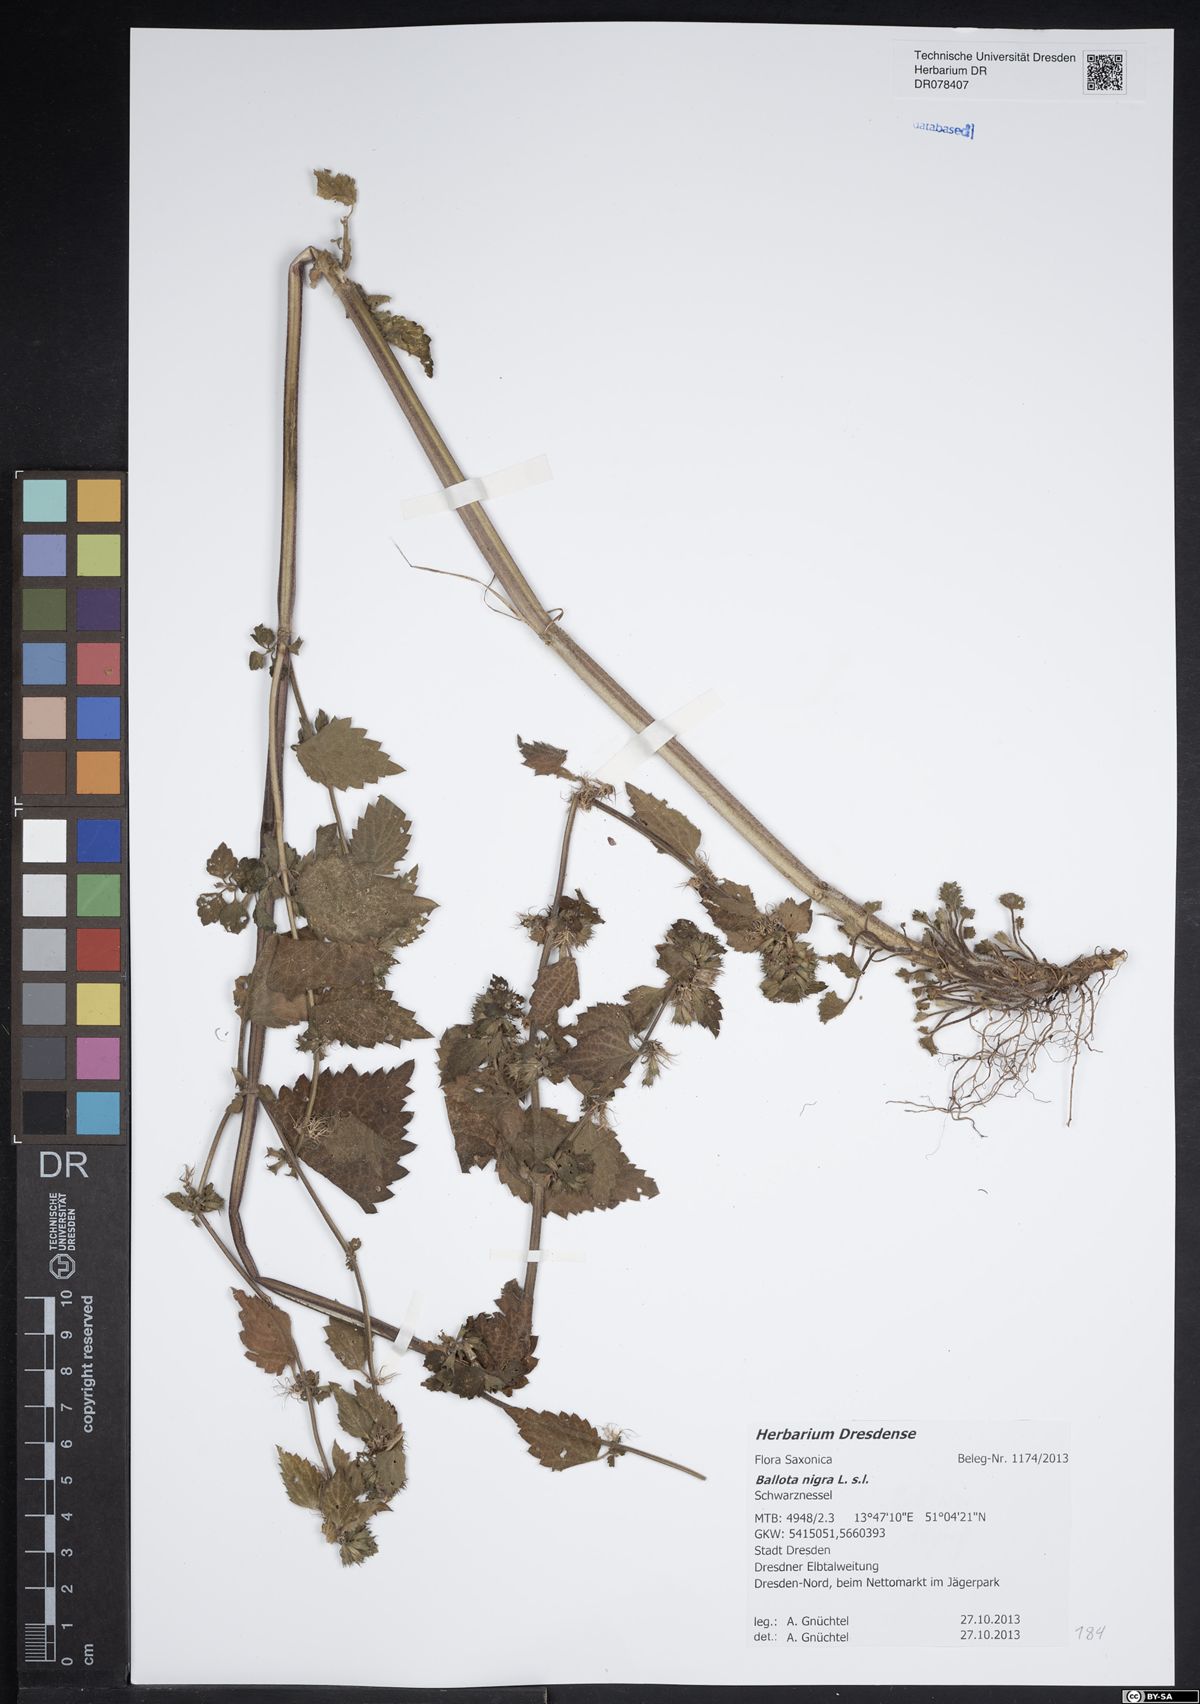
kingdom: Plantae
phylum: Tracheophyta
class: Magnoliopsida
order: Lamiales
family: Lamiaceae
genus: Ballota
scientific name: Ballota nigra
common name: Black horehound
